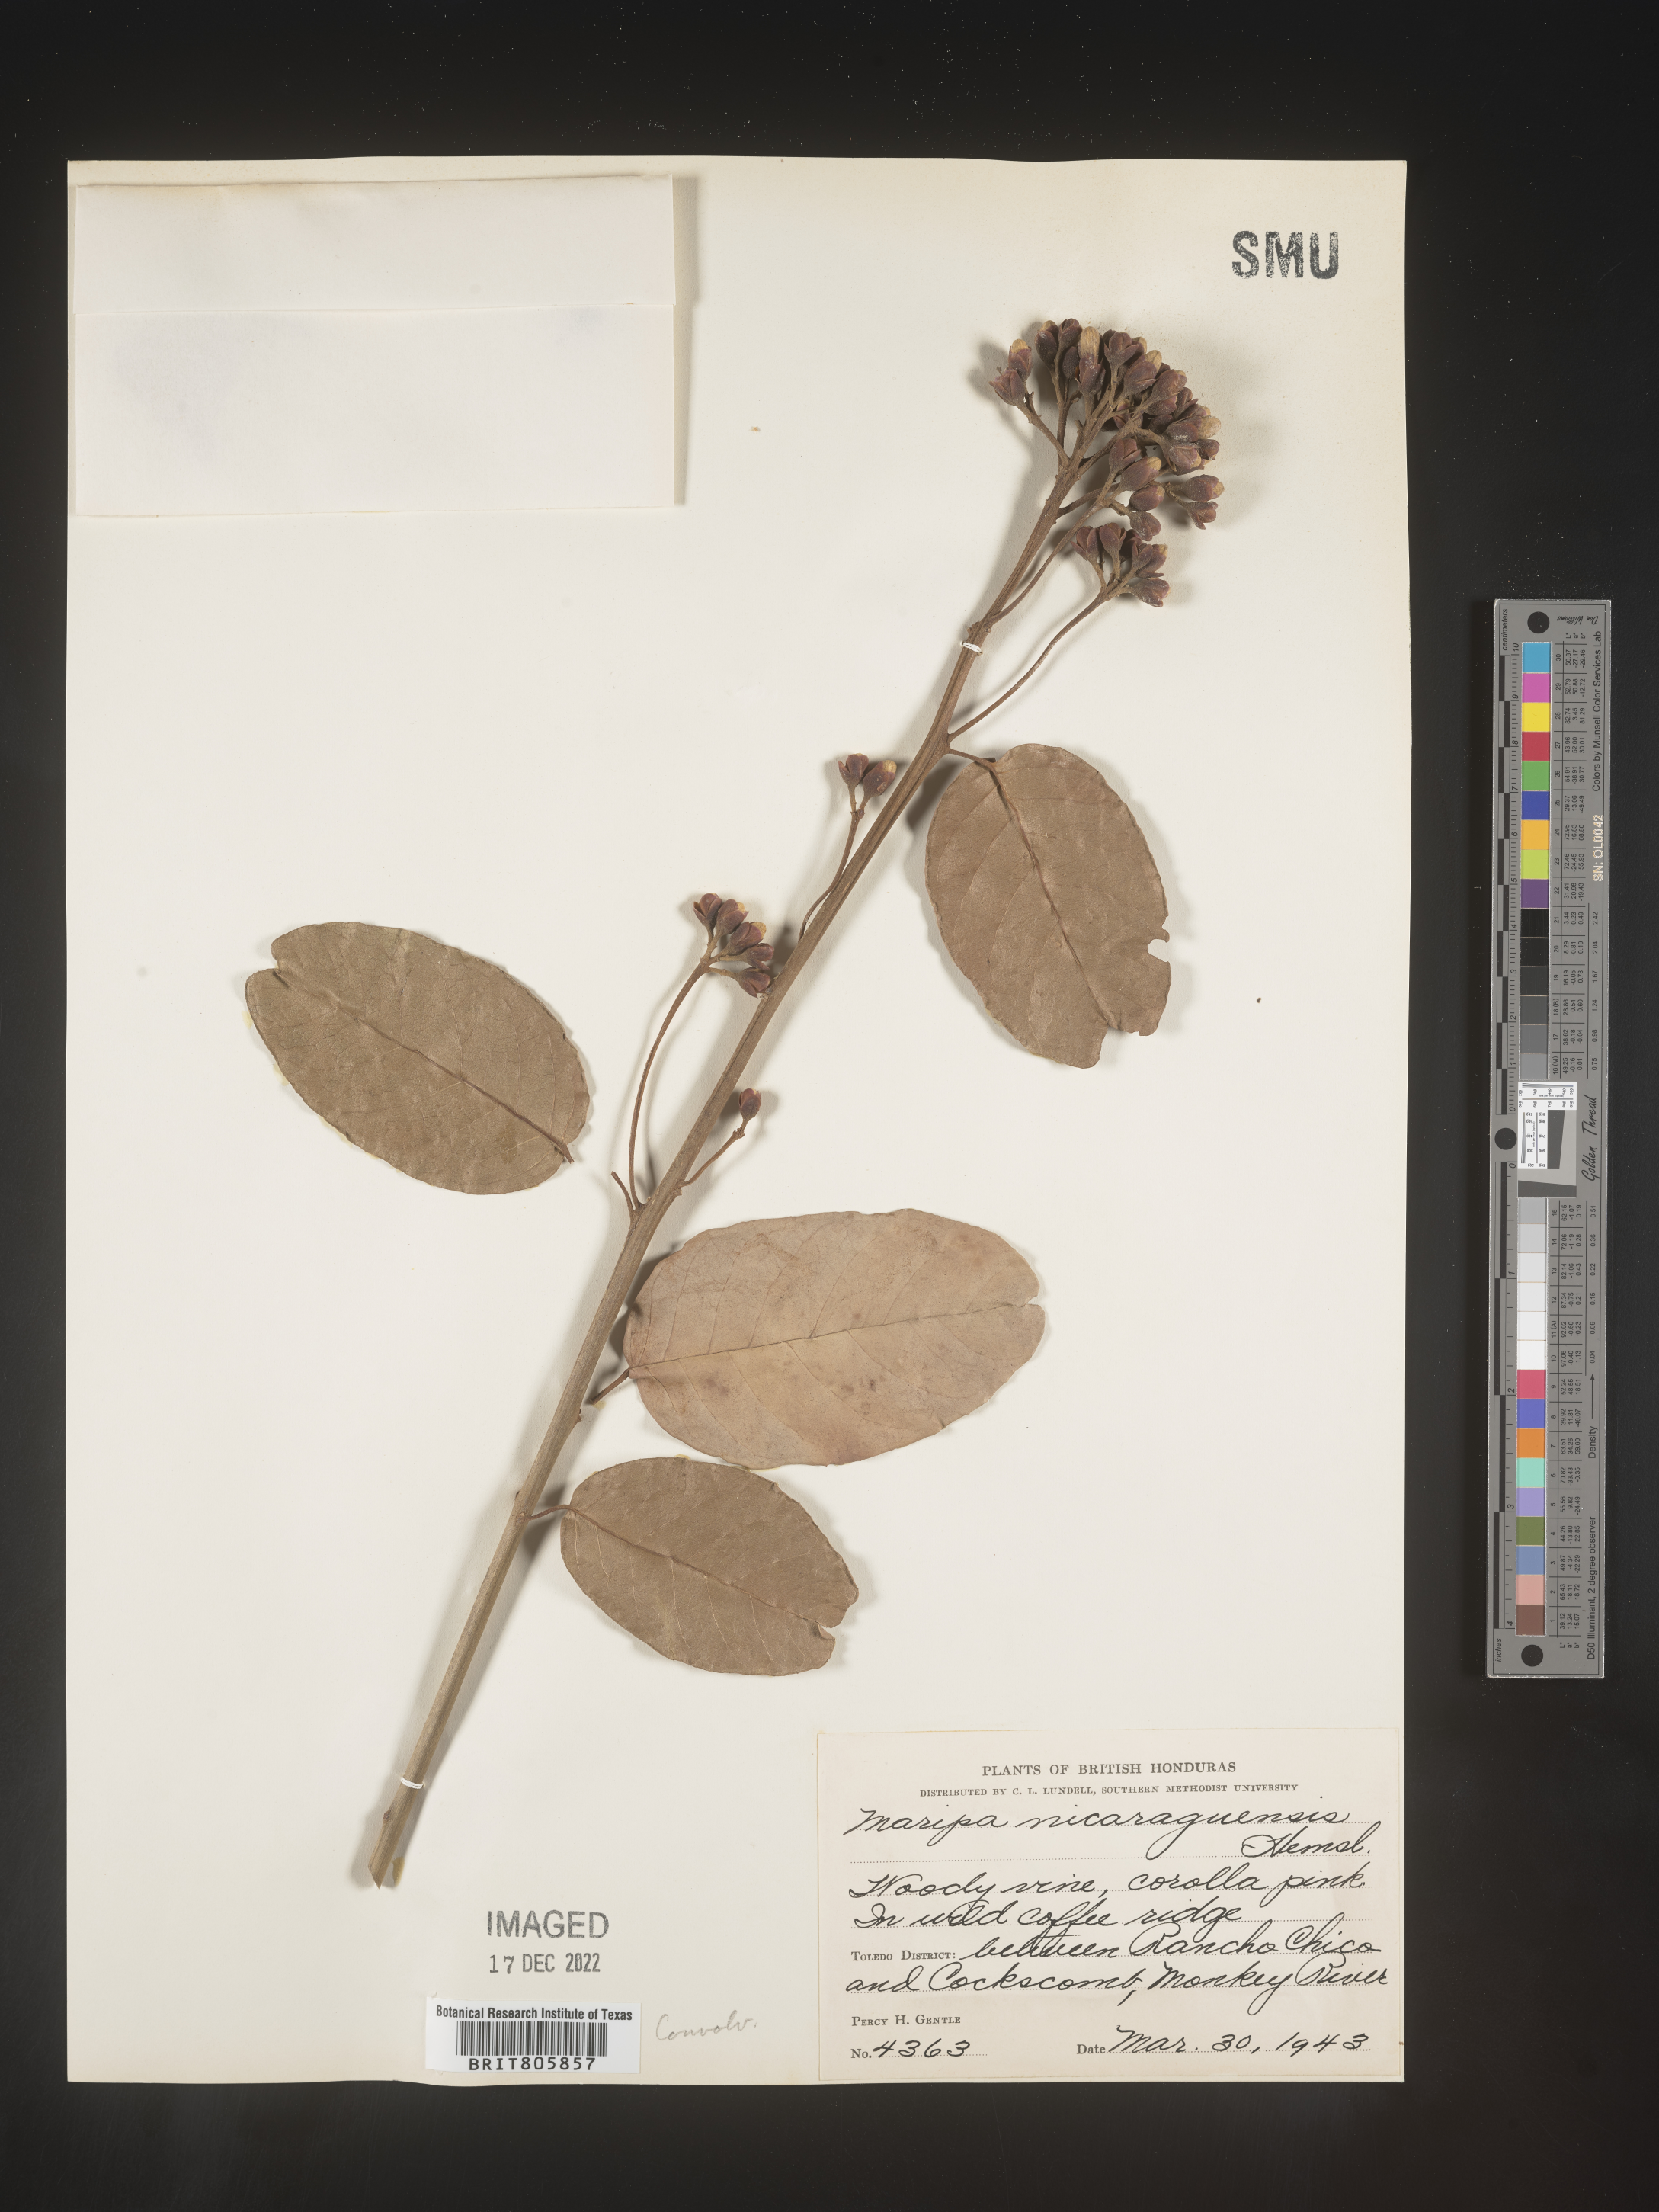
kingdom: Plantae
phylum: Tracheophyta
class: Magnoliopsida
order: Solanales
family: Convolvulaceae
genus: Maripa
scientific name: Maripa
